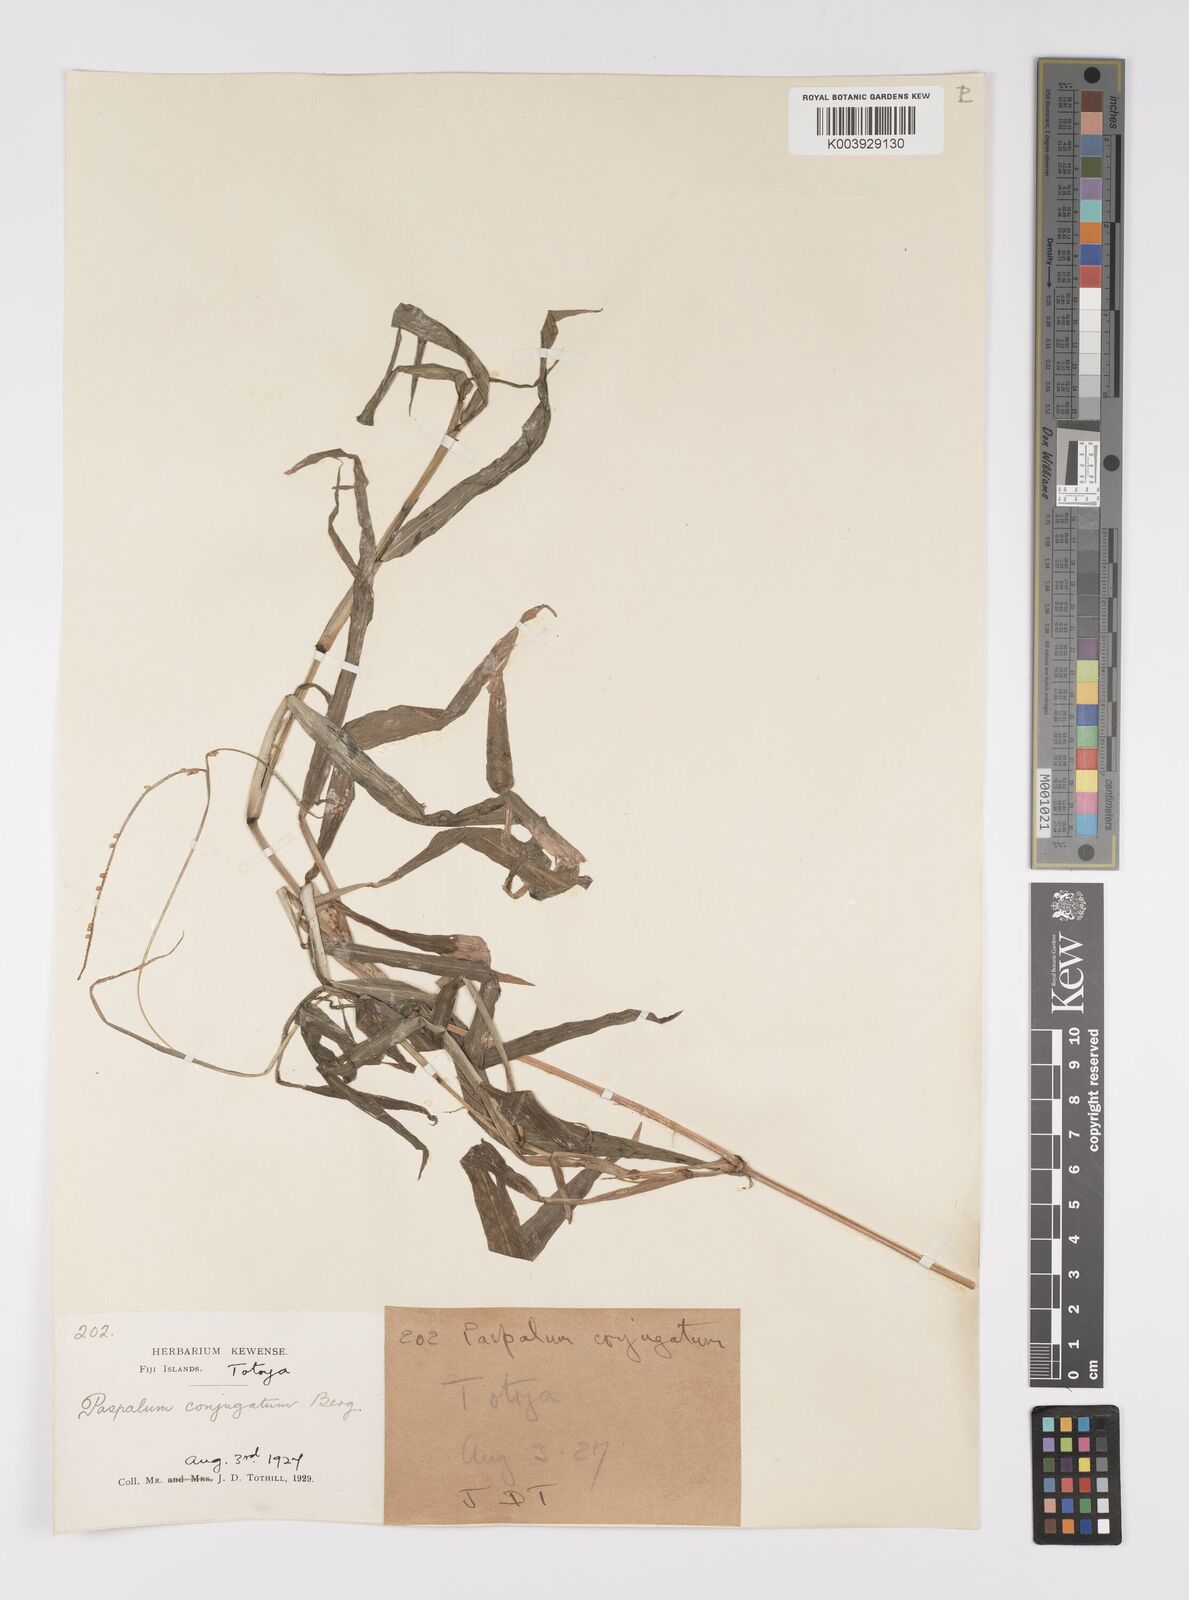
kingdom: Plantae
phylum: Tracheophyta
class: Liliopsida
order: Poales
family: Poaceae
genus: Paspalum
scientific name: Paspalum conjugatum
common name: Hilograss
